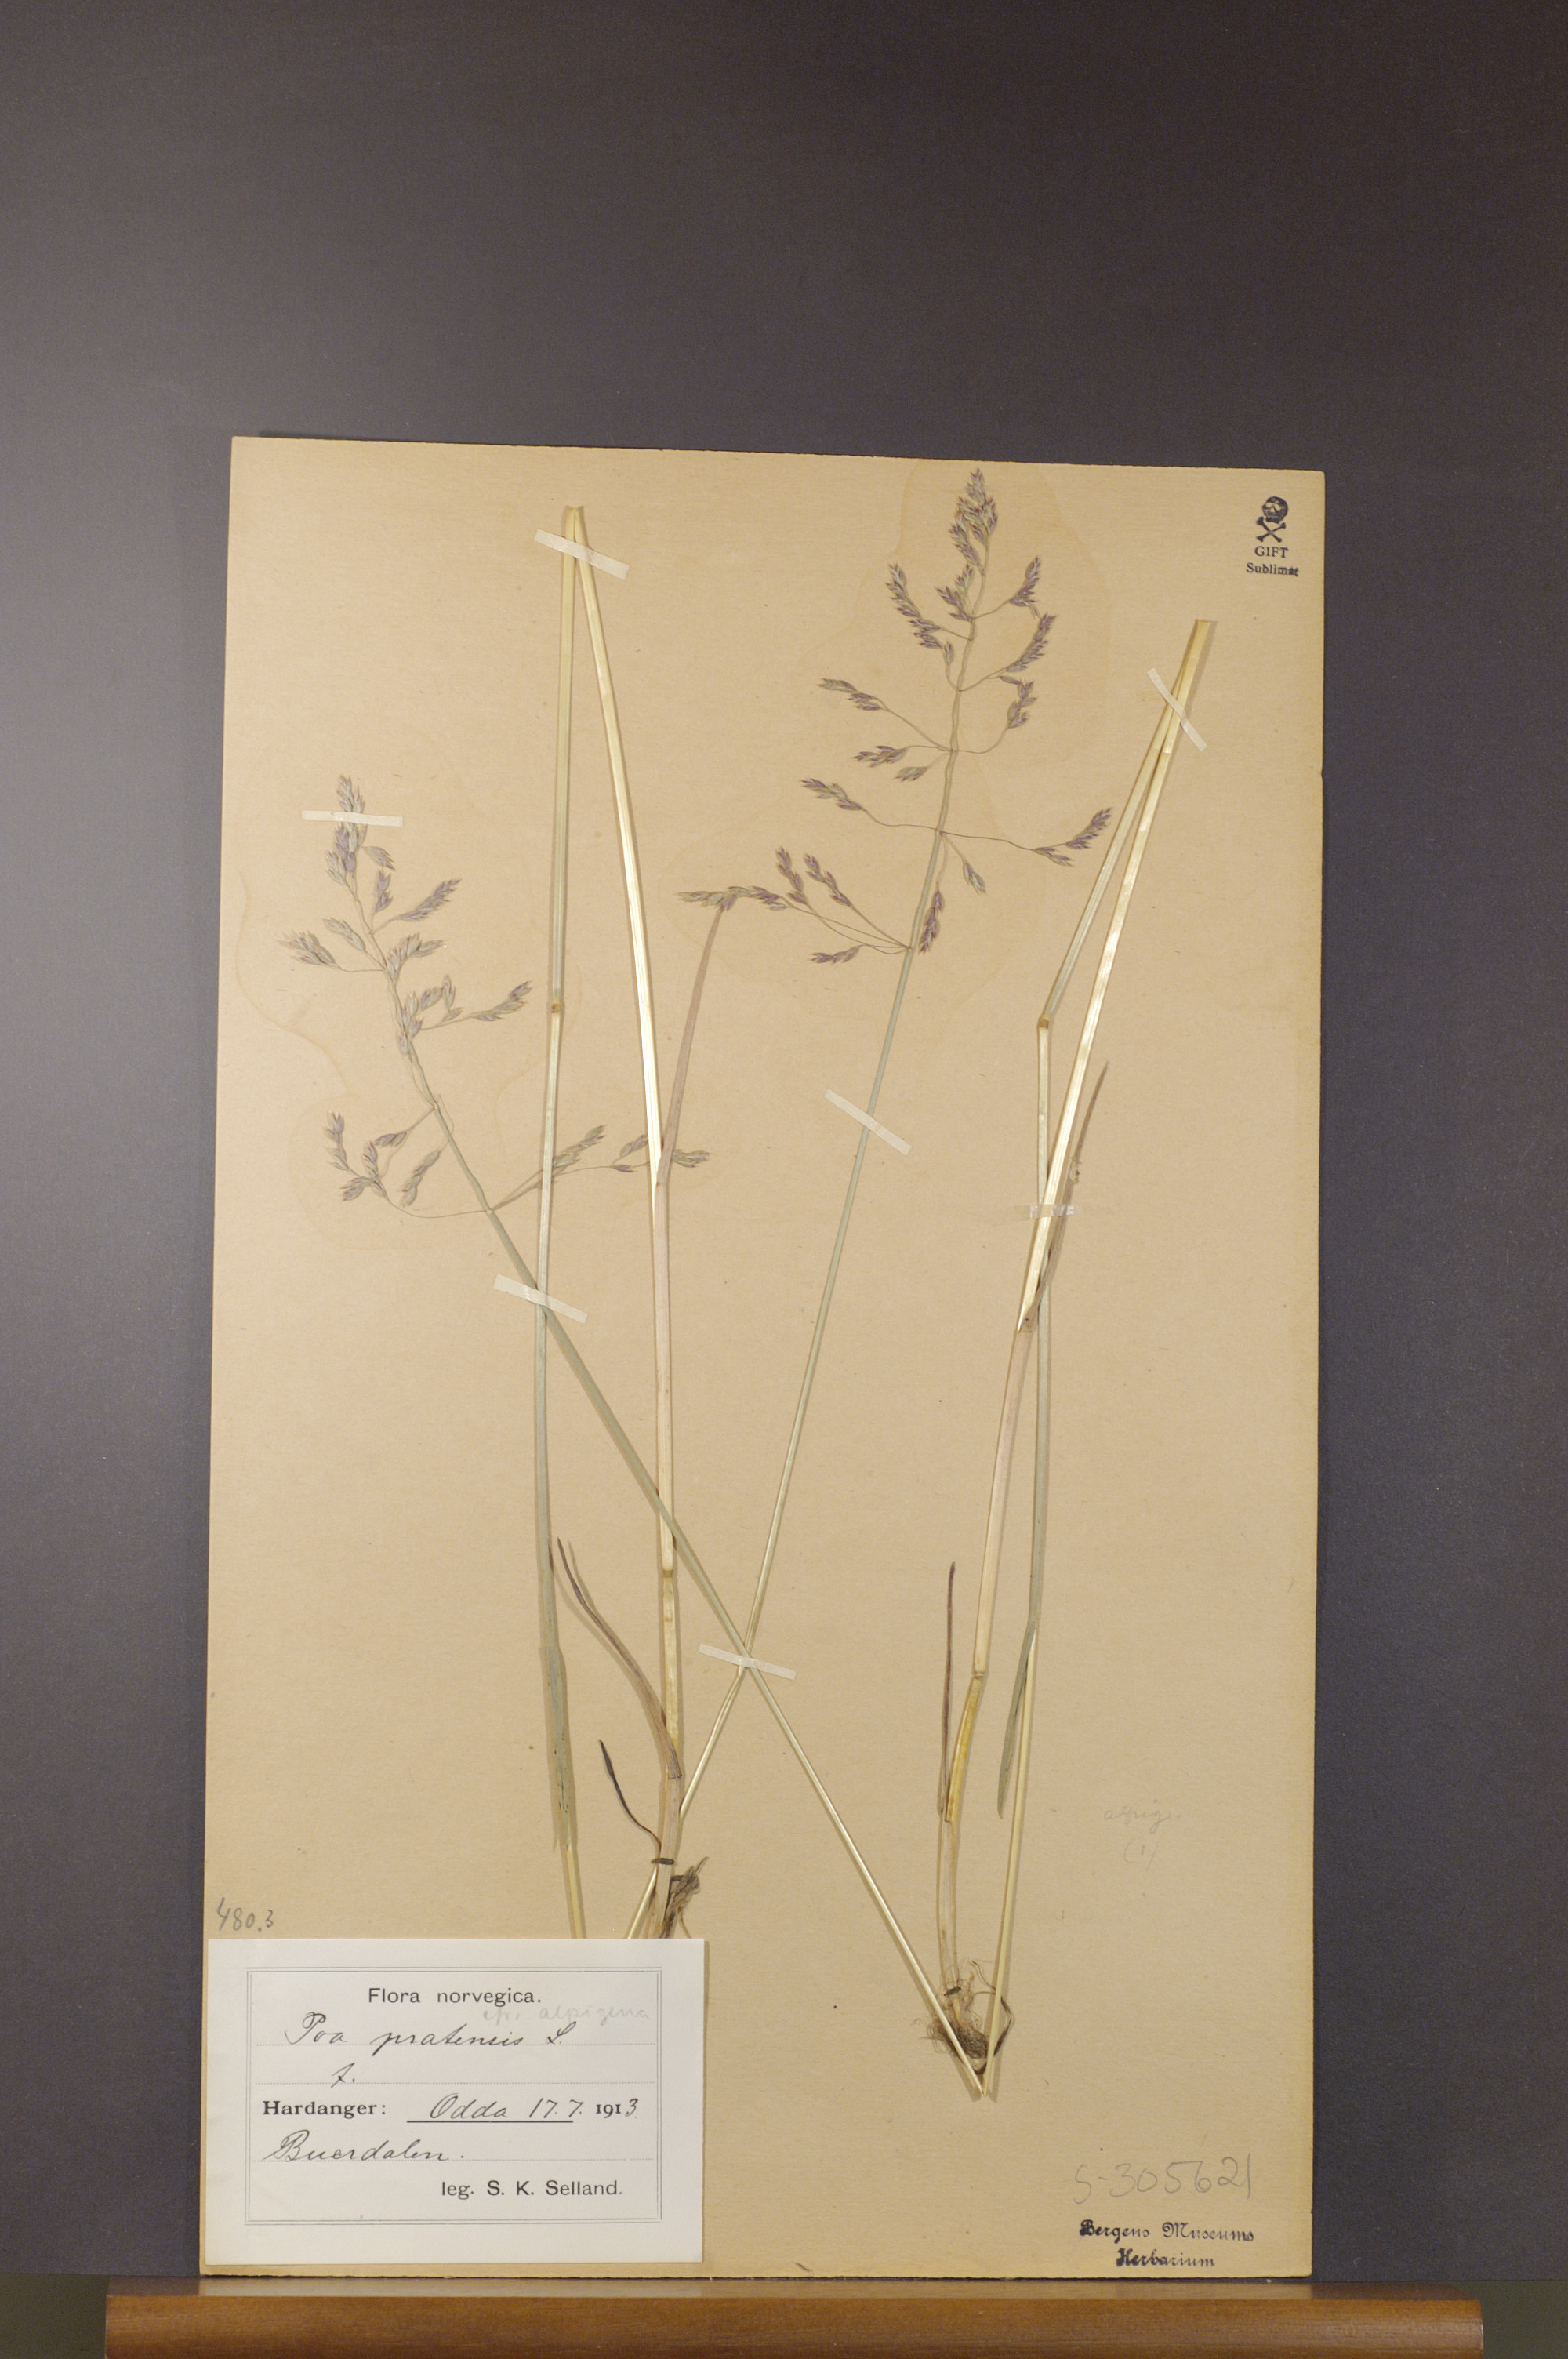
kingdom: Plantae
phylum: Tracheophyta
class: Liliopsida
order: Poales
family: Poaceae
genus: Poa
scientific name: Poa pratensis
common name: Kentucky bluegrass
